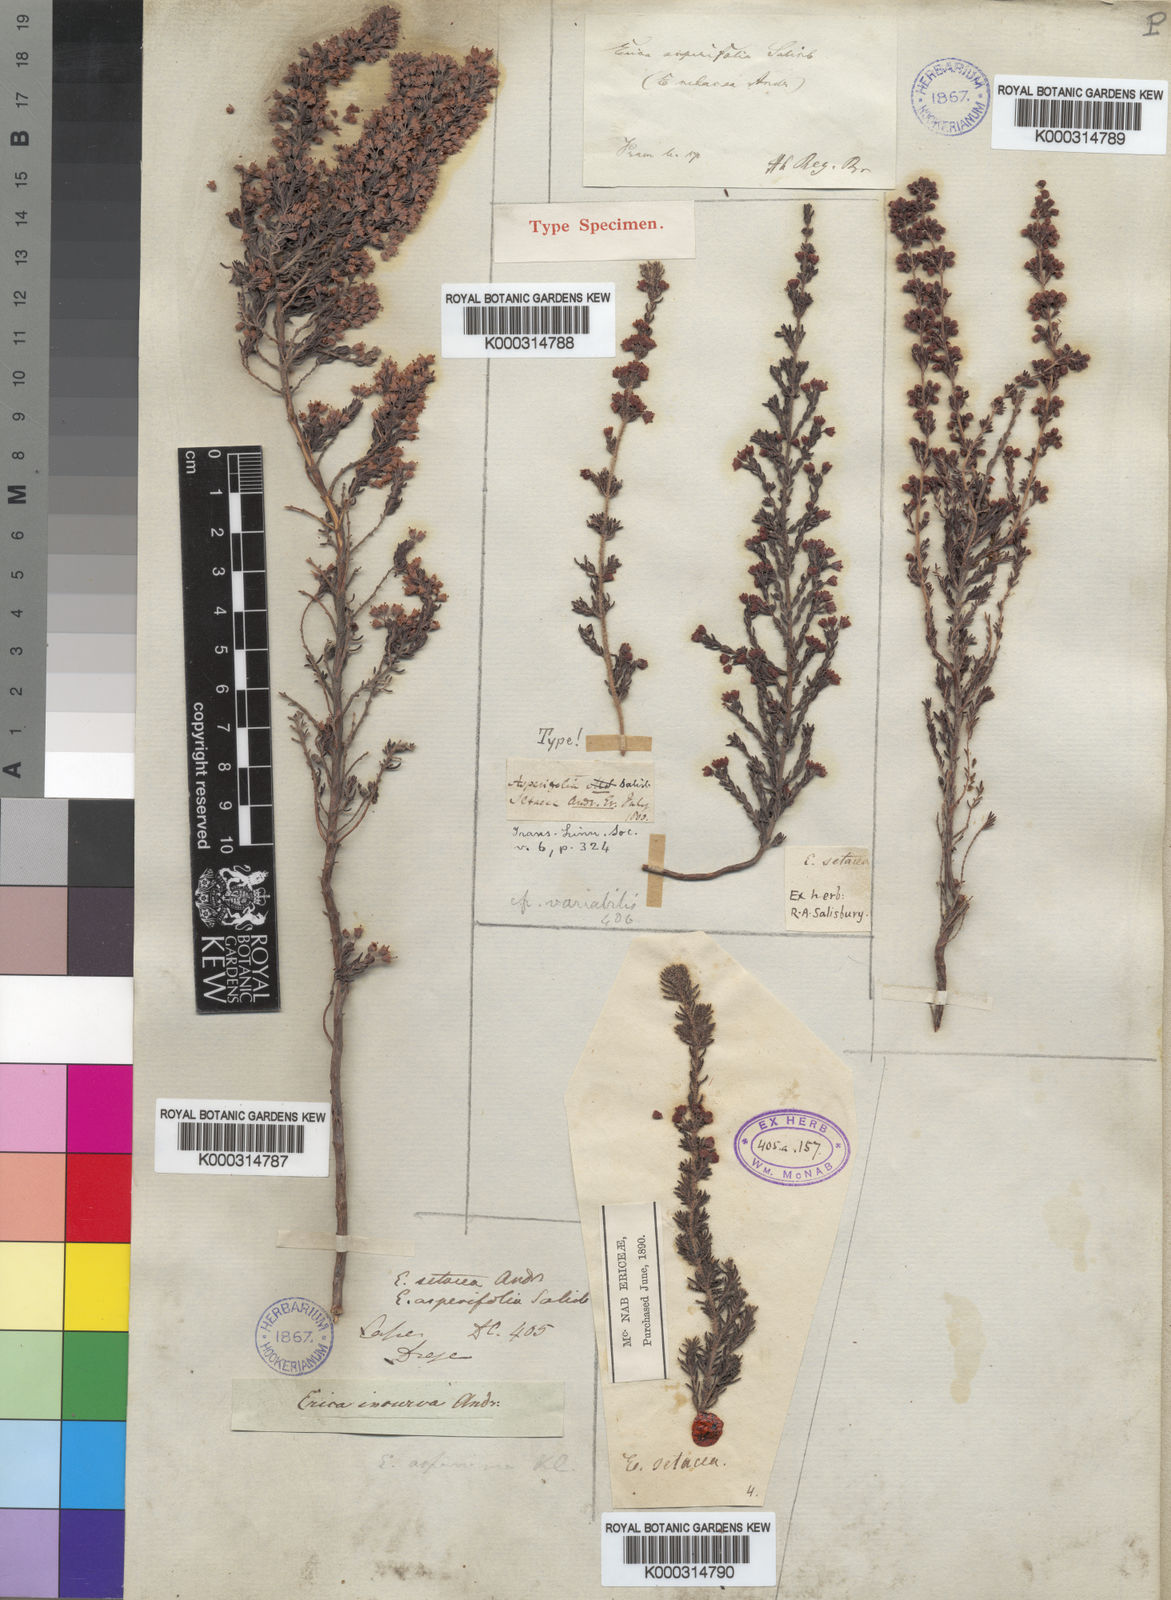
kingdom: Plantae
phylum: Tracheophyta
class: Magnoliopsida
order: Ericales
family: Ericaceae
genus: Erica
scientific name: Erica setacea
